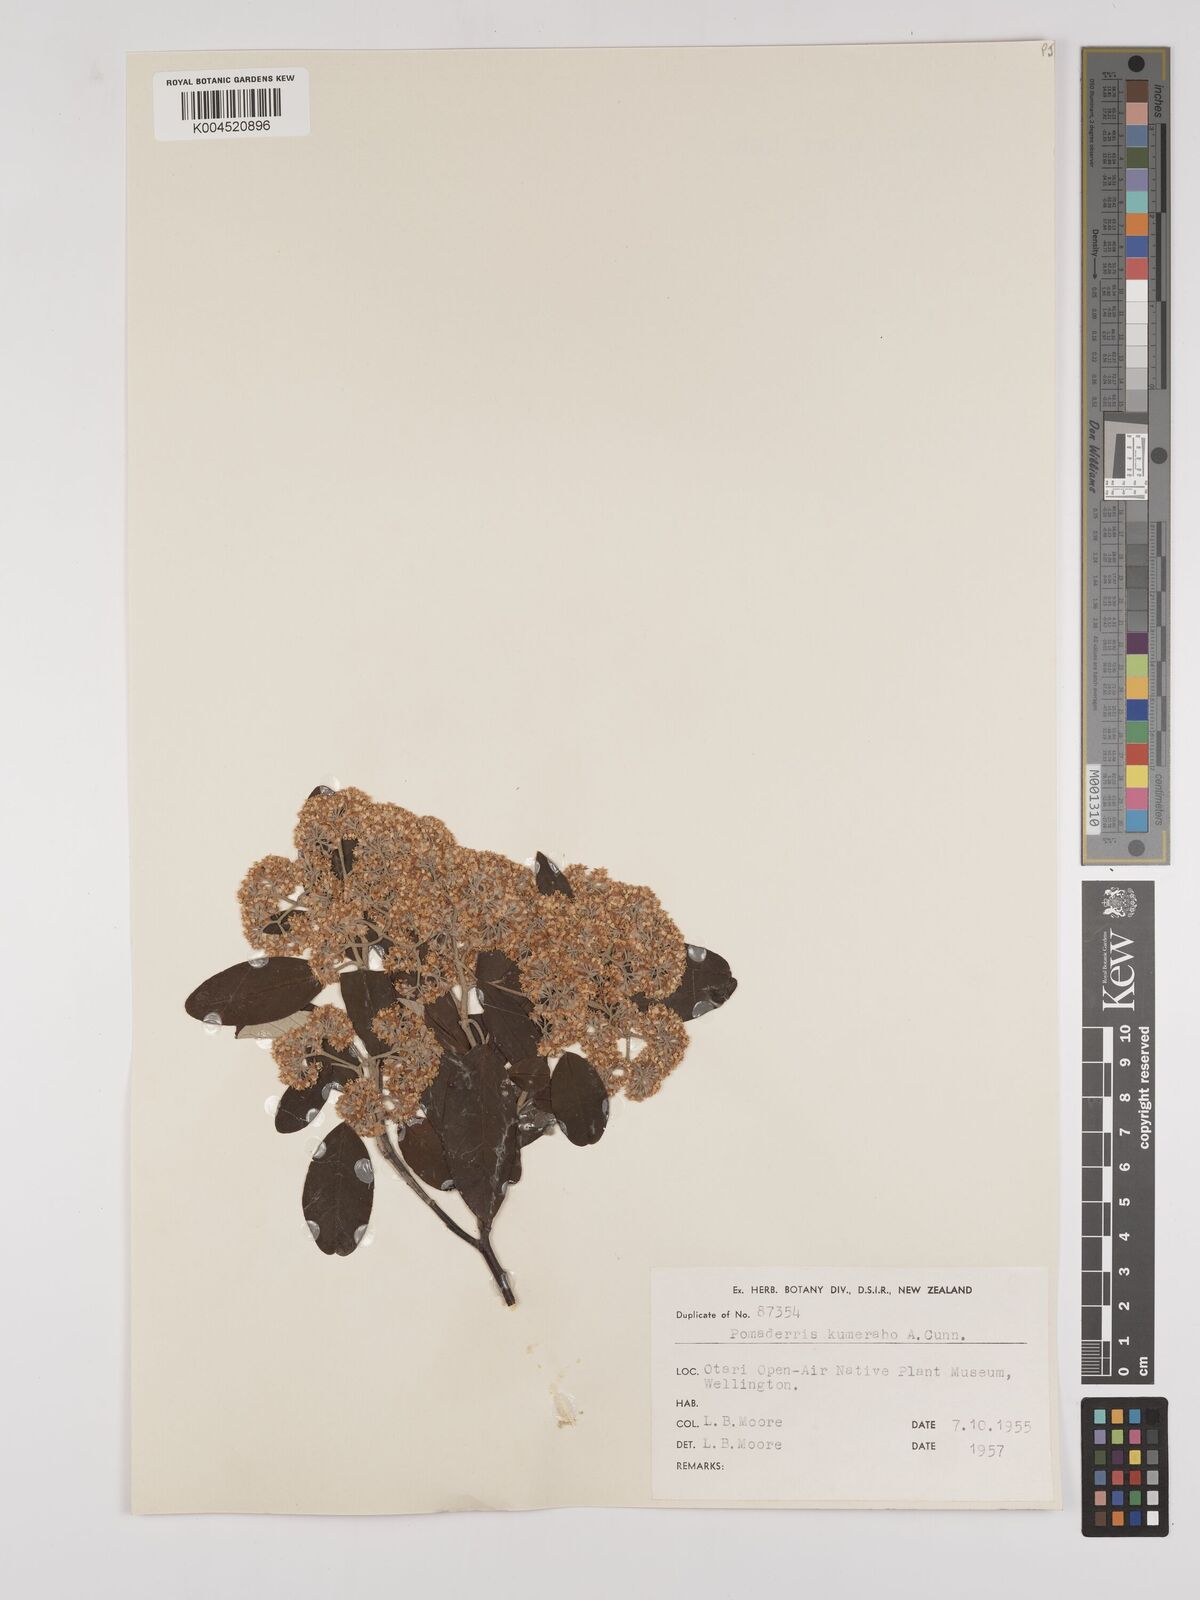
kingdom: Plantae
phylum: Tracheophyta
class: Magnoliopsida
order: Rosales
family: Rhamnaceae
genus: Pomaderris
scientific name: Pomaderris kumeraho
